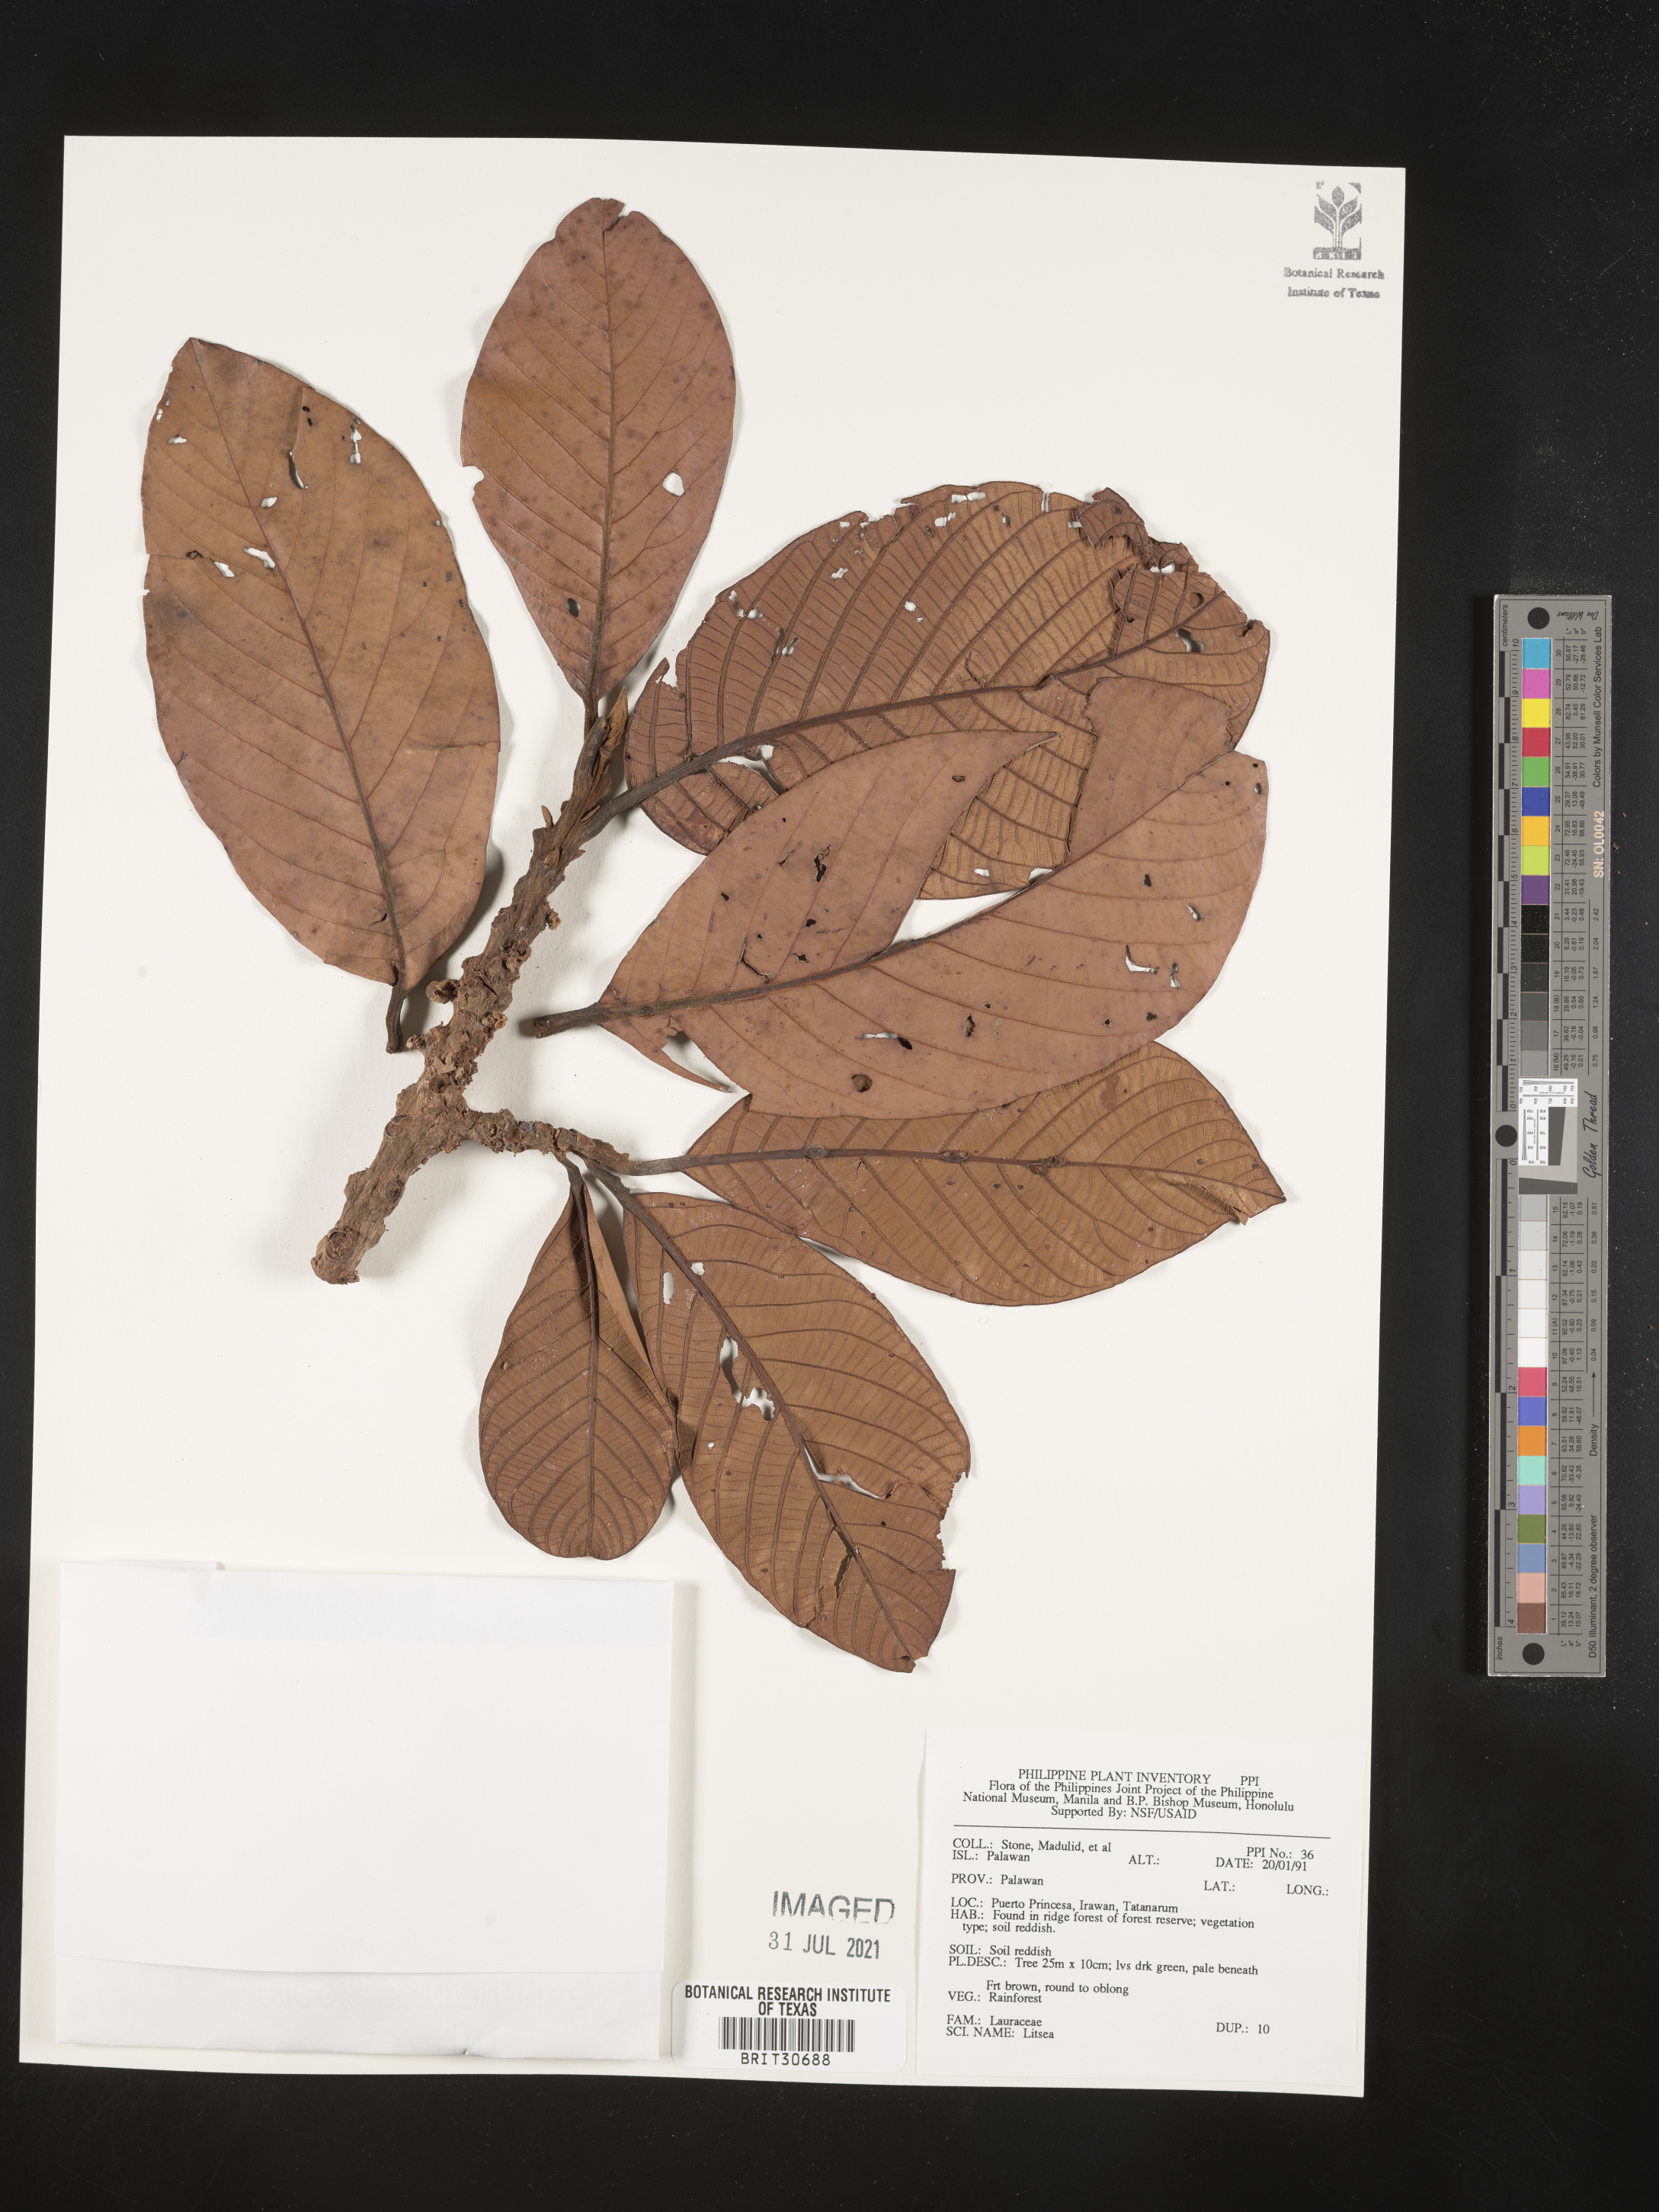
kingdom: Plantae
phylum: Tracheophyta
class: Magnoliopsida
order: Laurales
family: Lauraceae
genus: Litsea
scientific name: Litsea
